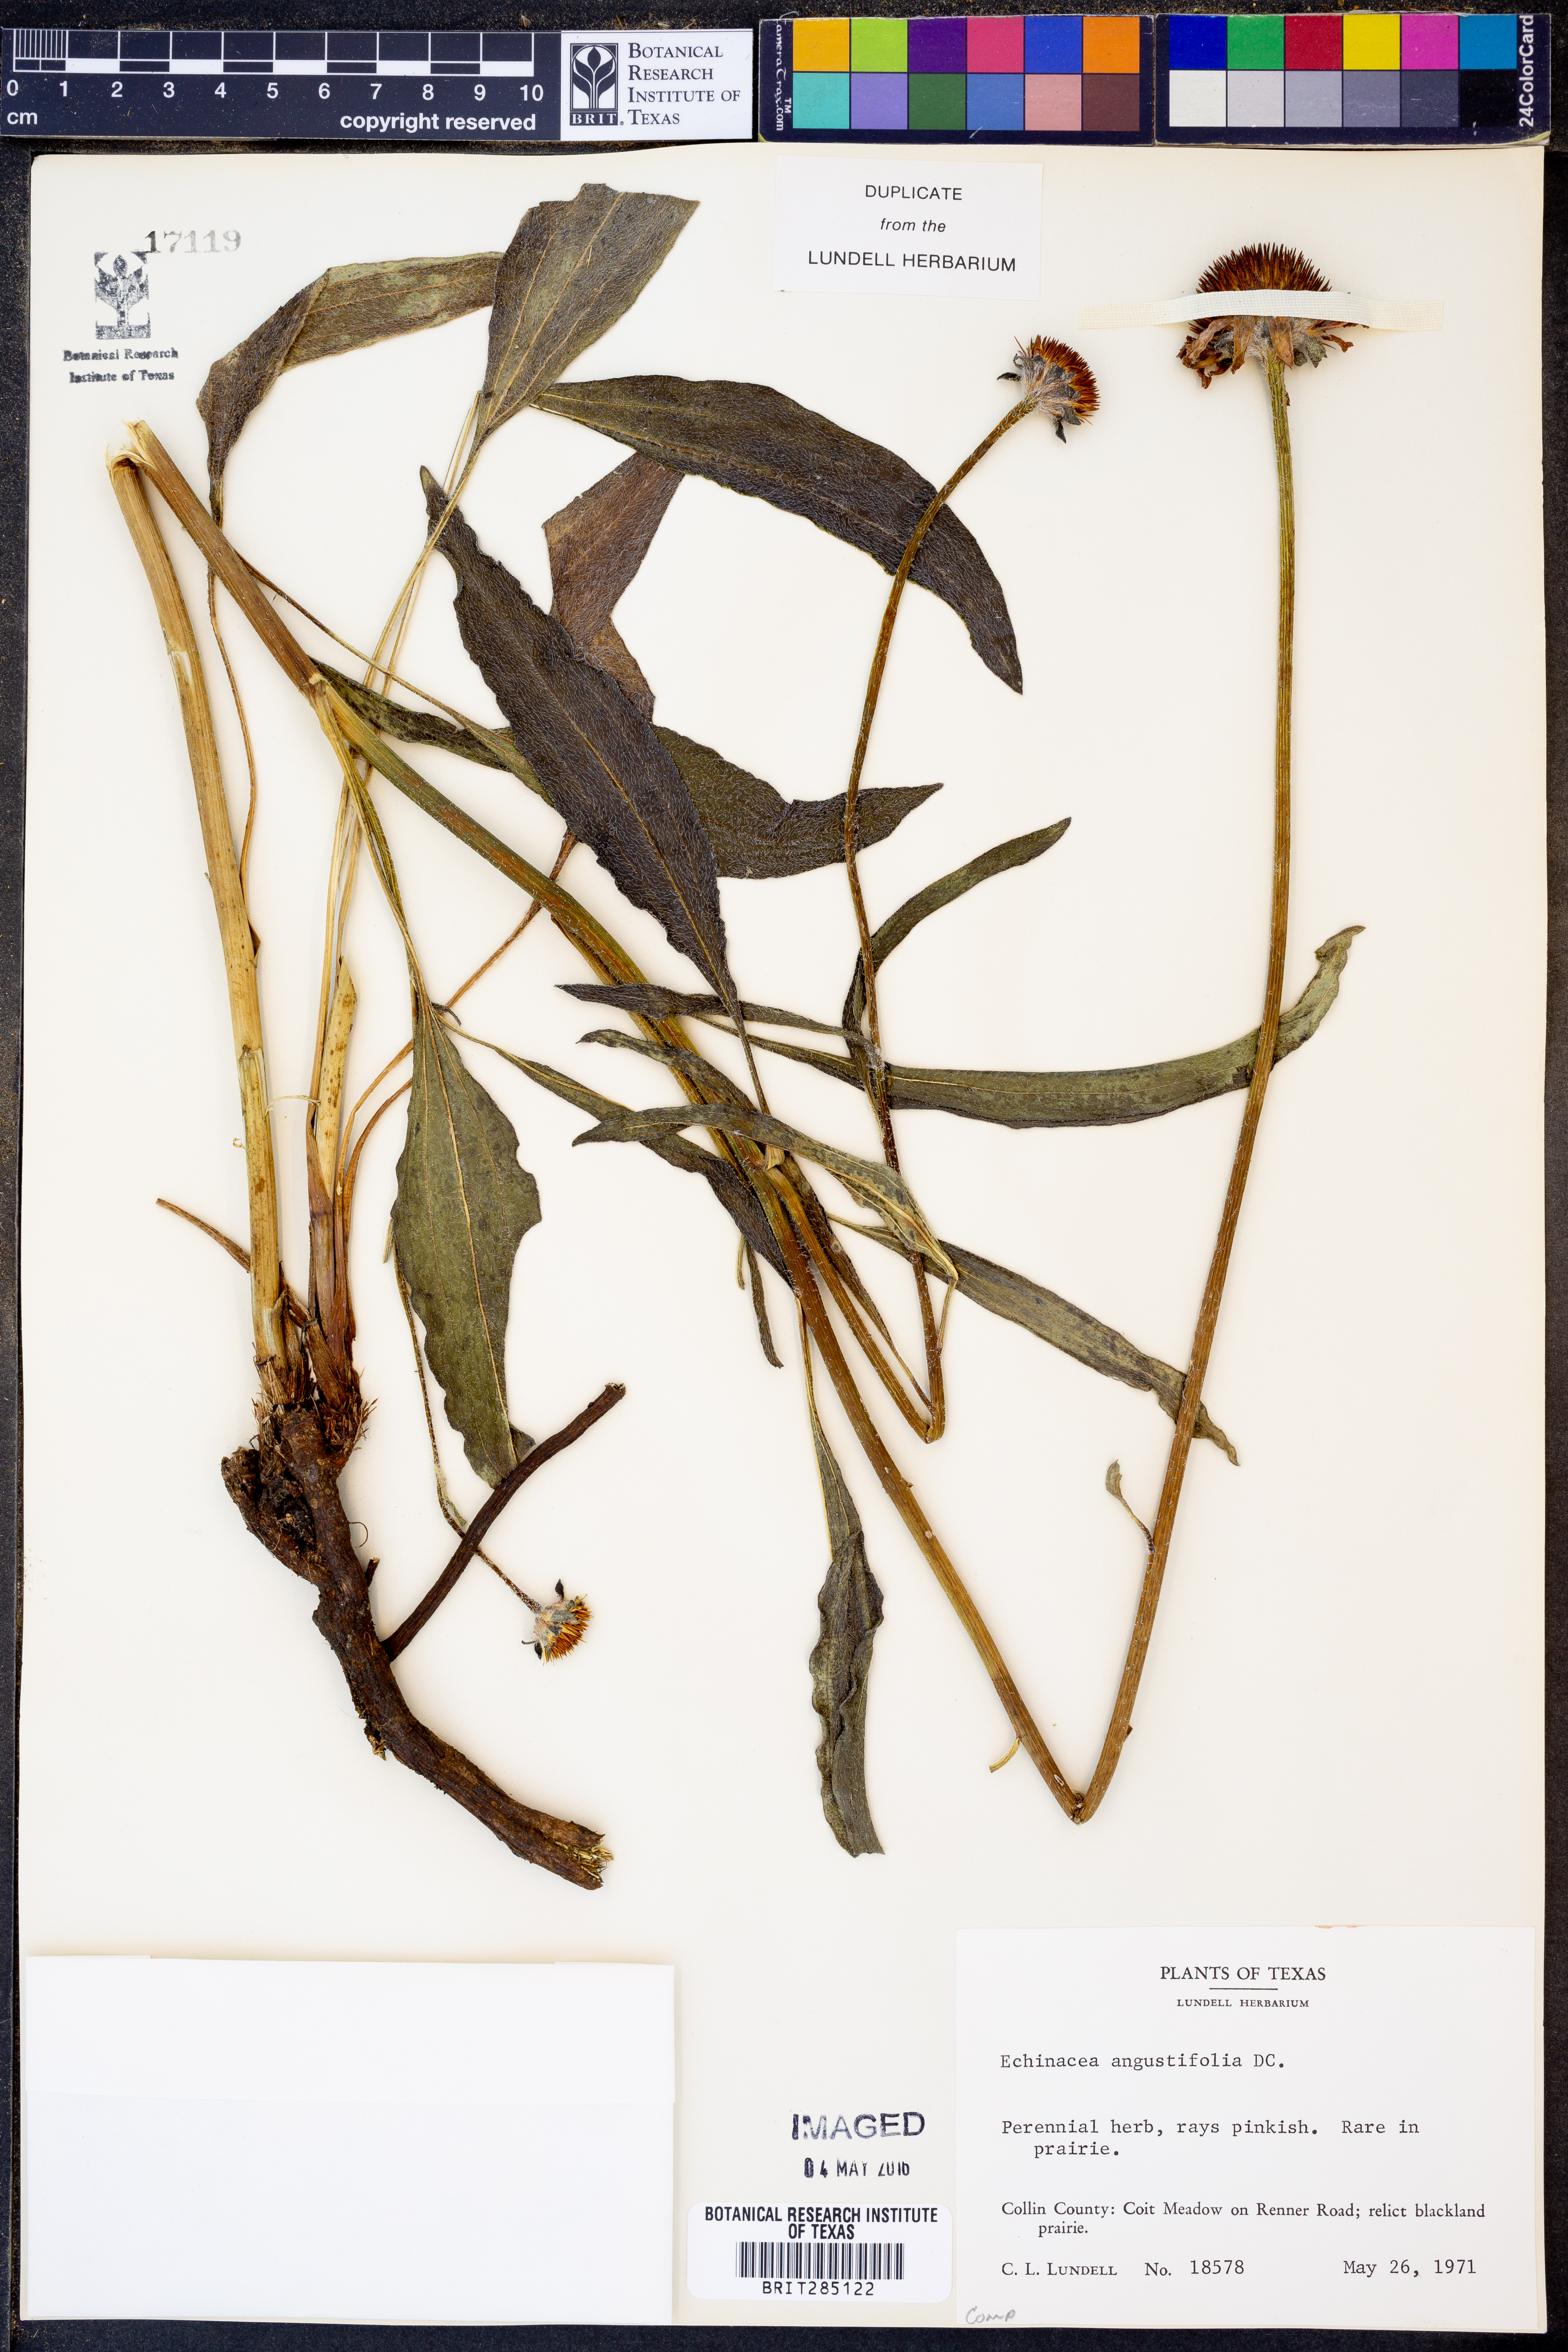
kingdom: Plantae
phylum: Tracheophyta
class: Magnoliopsida
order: Asterales
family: Asteraceae
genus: Echinacea
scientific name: Echinacea angustifolia
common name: Black-sampson echinacea
